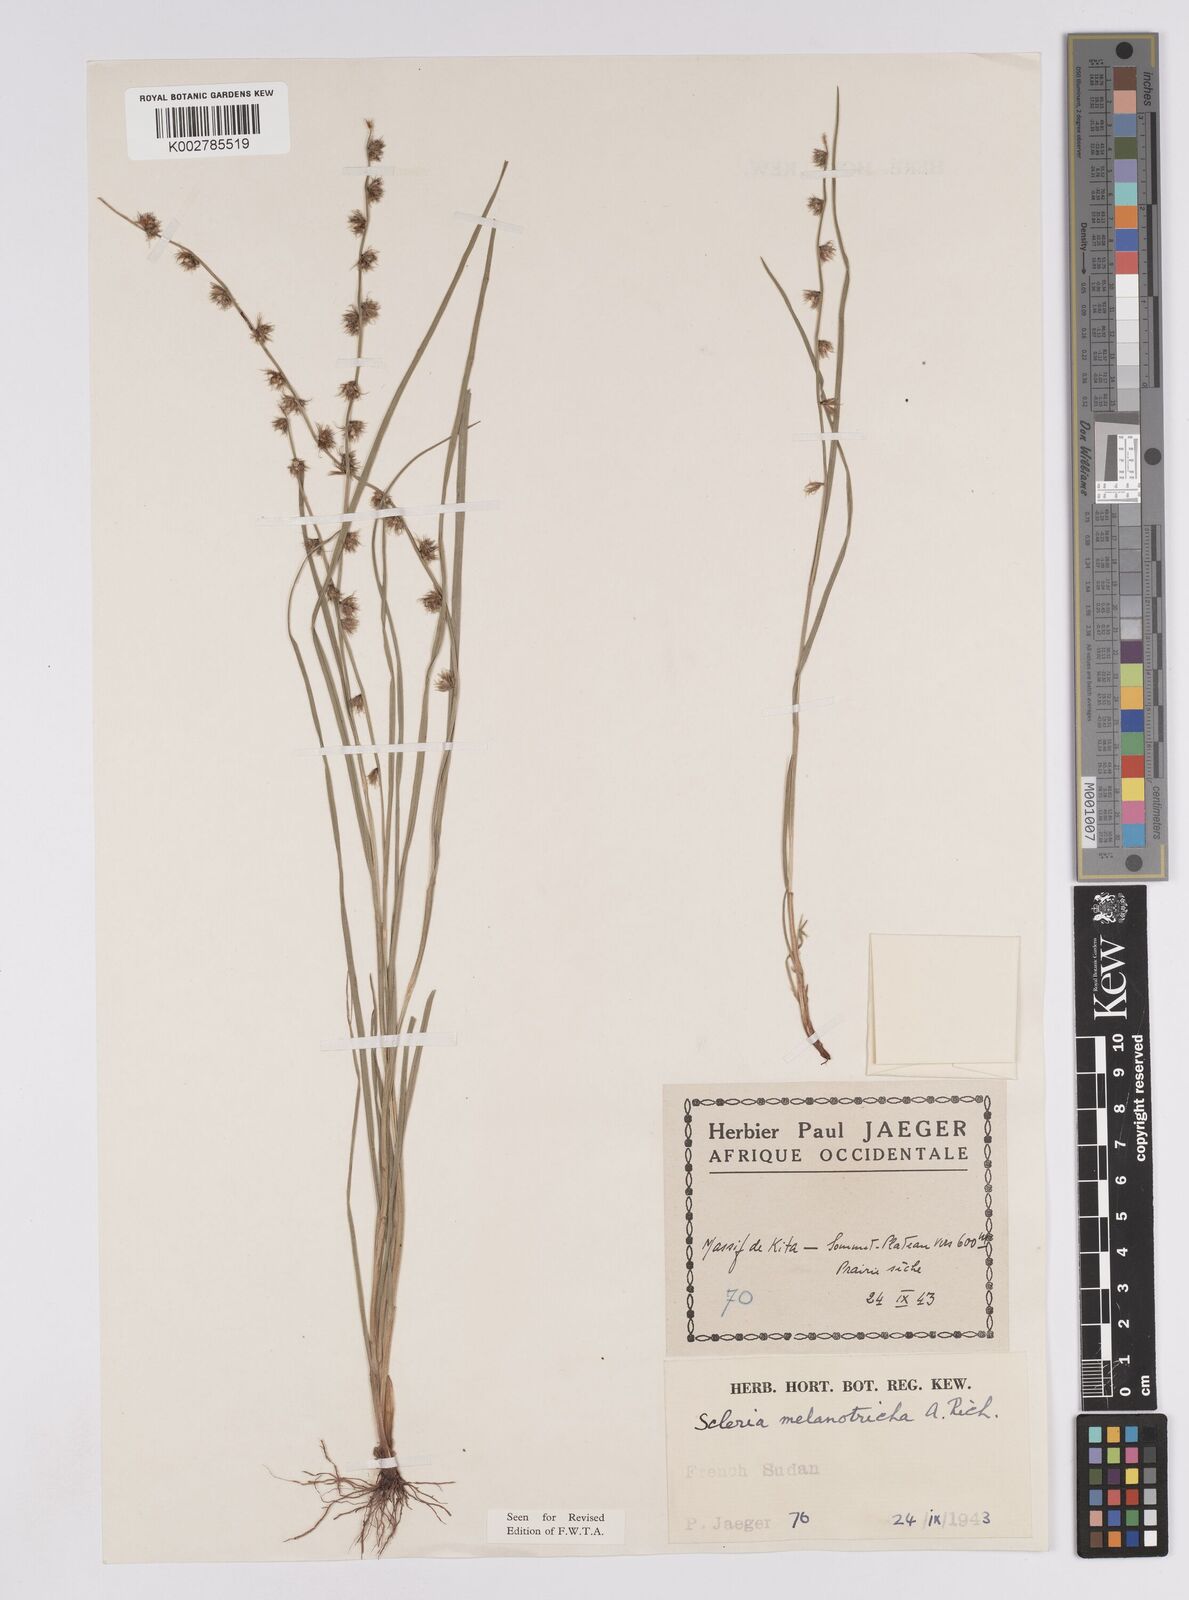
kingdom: Plantae
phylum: Tracheophyta
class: Liliopsida
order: Poales
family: Cyperaceae
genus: Scleria
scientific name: Scleria melanotricha
